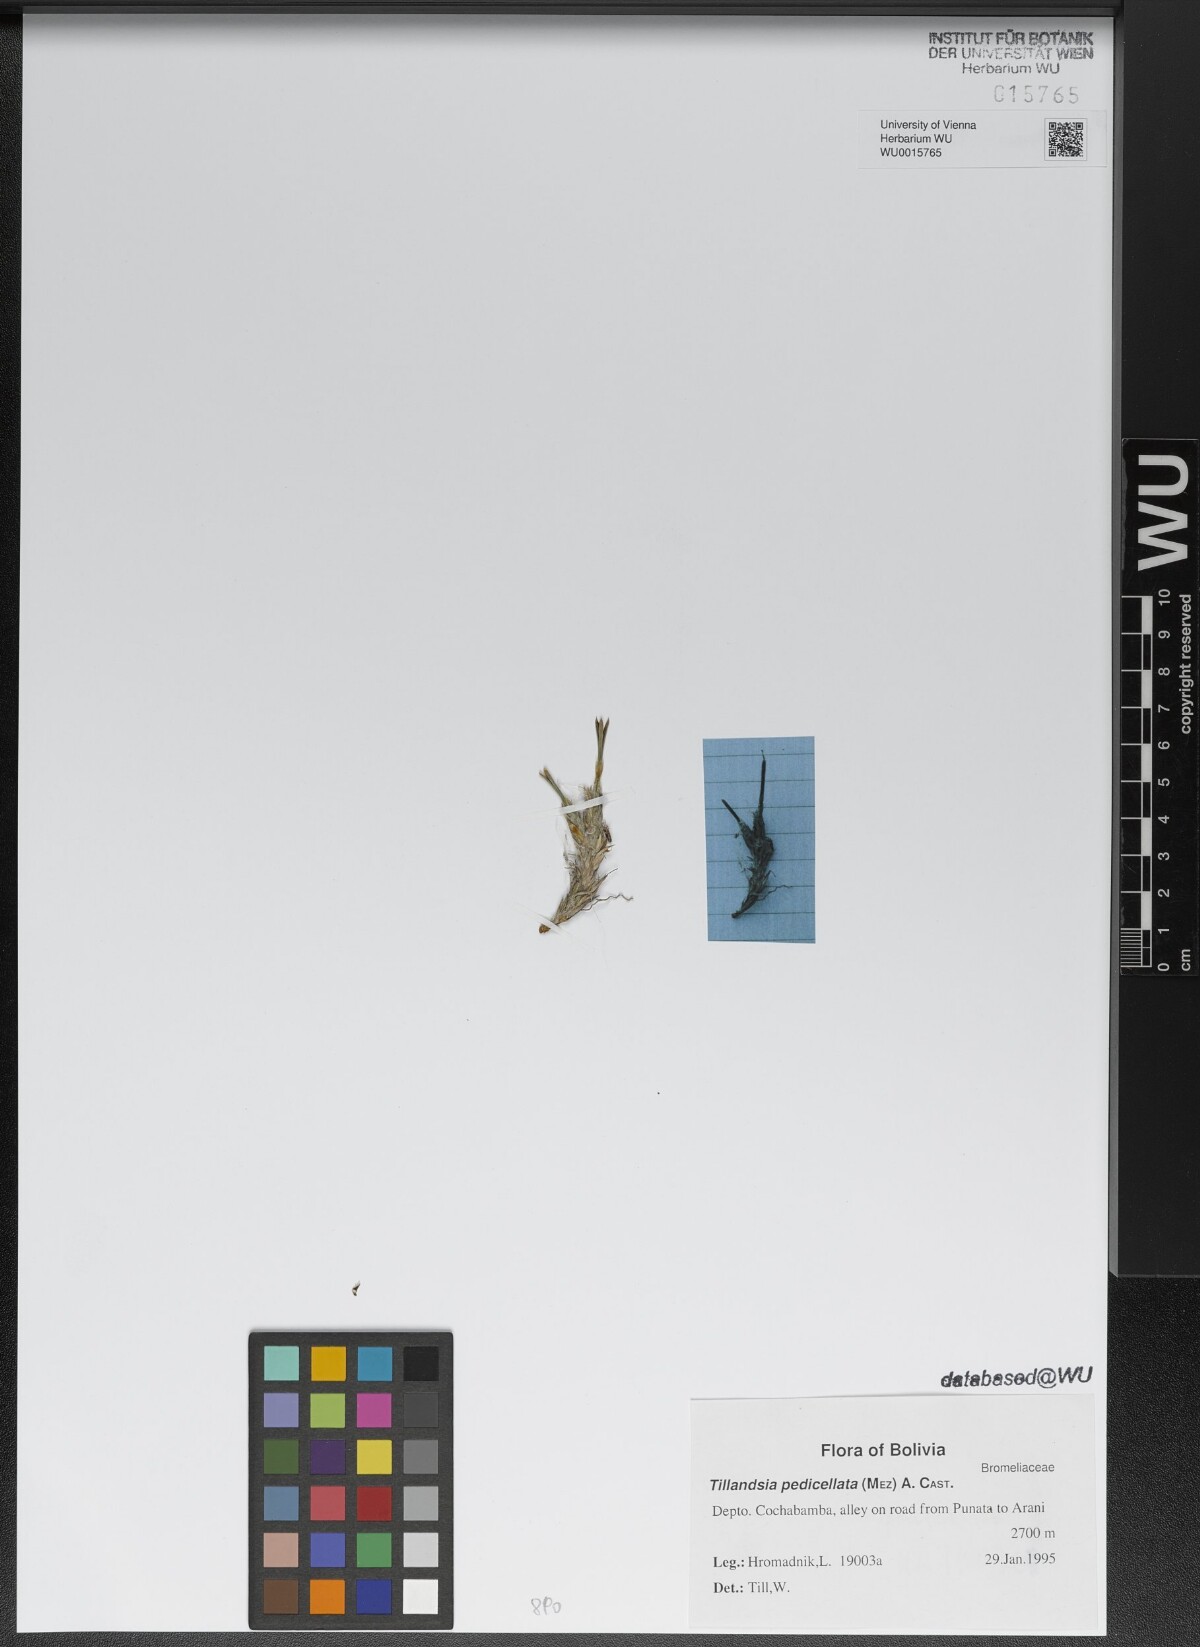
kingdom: Plantae
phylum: Tracheophyta
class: Liliopsida
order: Poales
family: Bromeliaceae
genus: Tillandsia
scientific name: Tillandsia pedicellata
